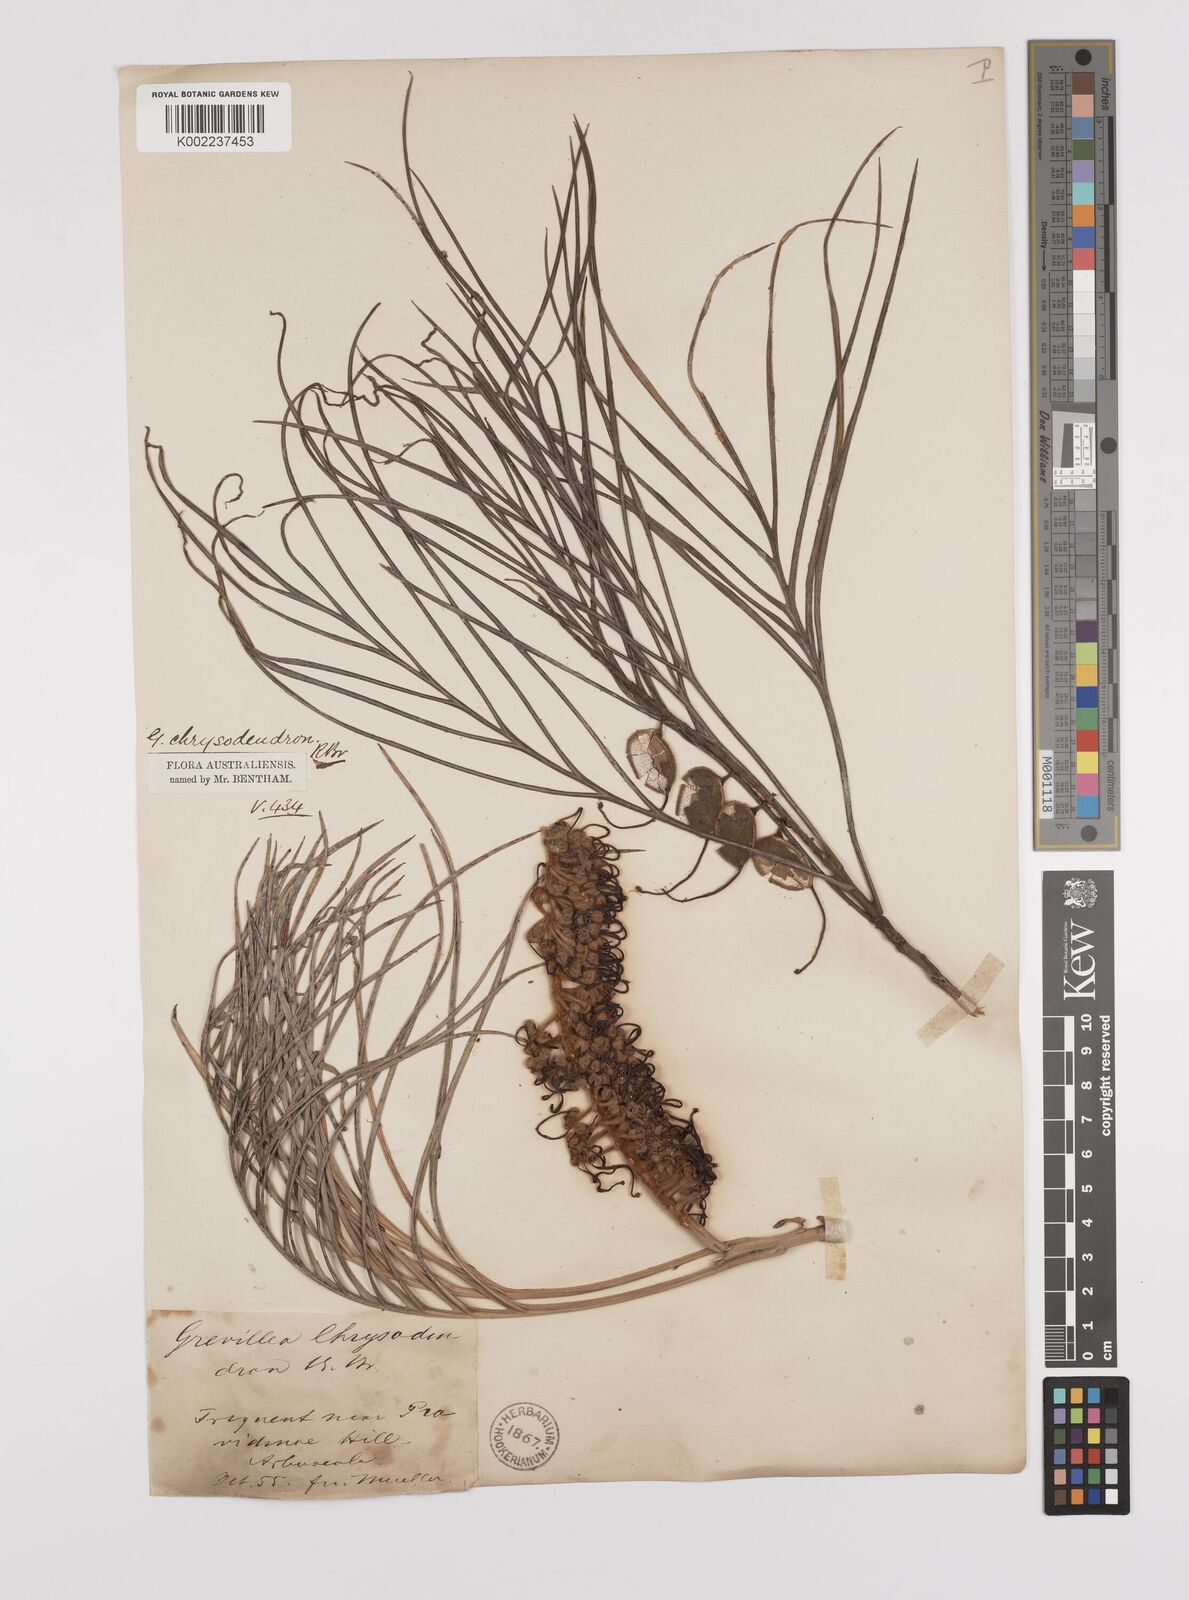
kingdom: Plantae
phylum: Tracheophyta
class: Magnoliopsida
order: Proteales
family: Proteaceae
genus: Grevillea
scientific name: Grevillea pteridifolia
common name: Golden grevillea
